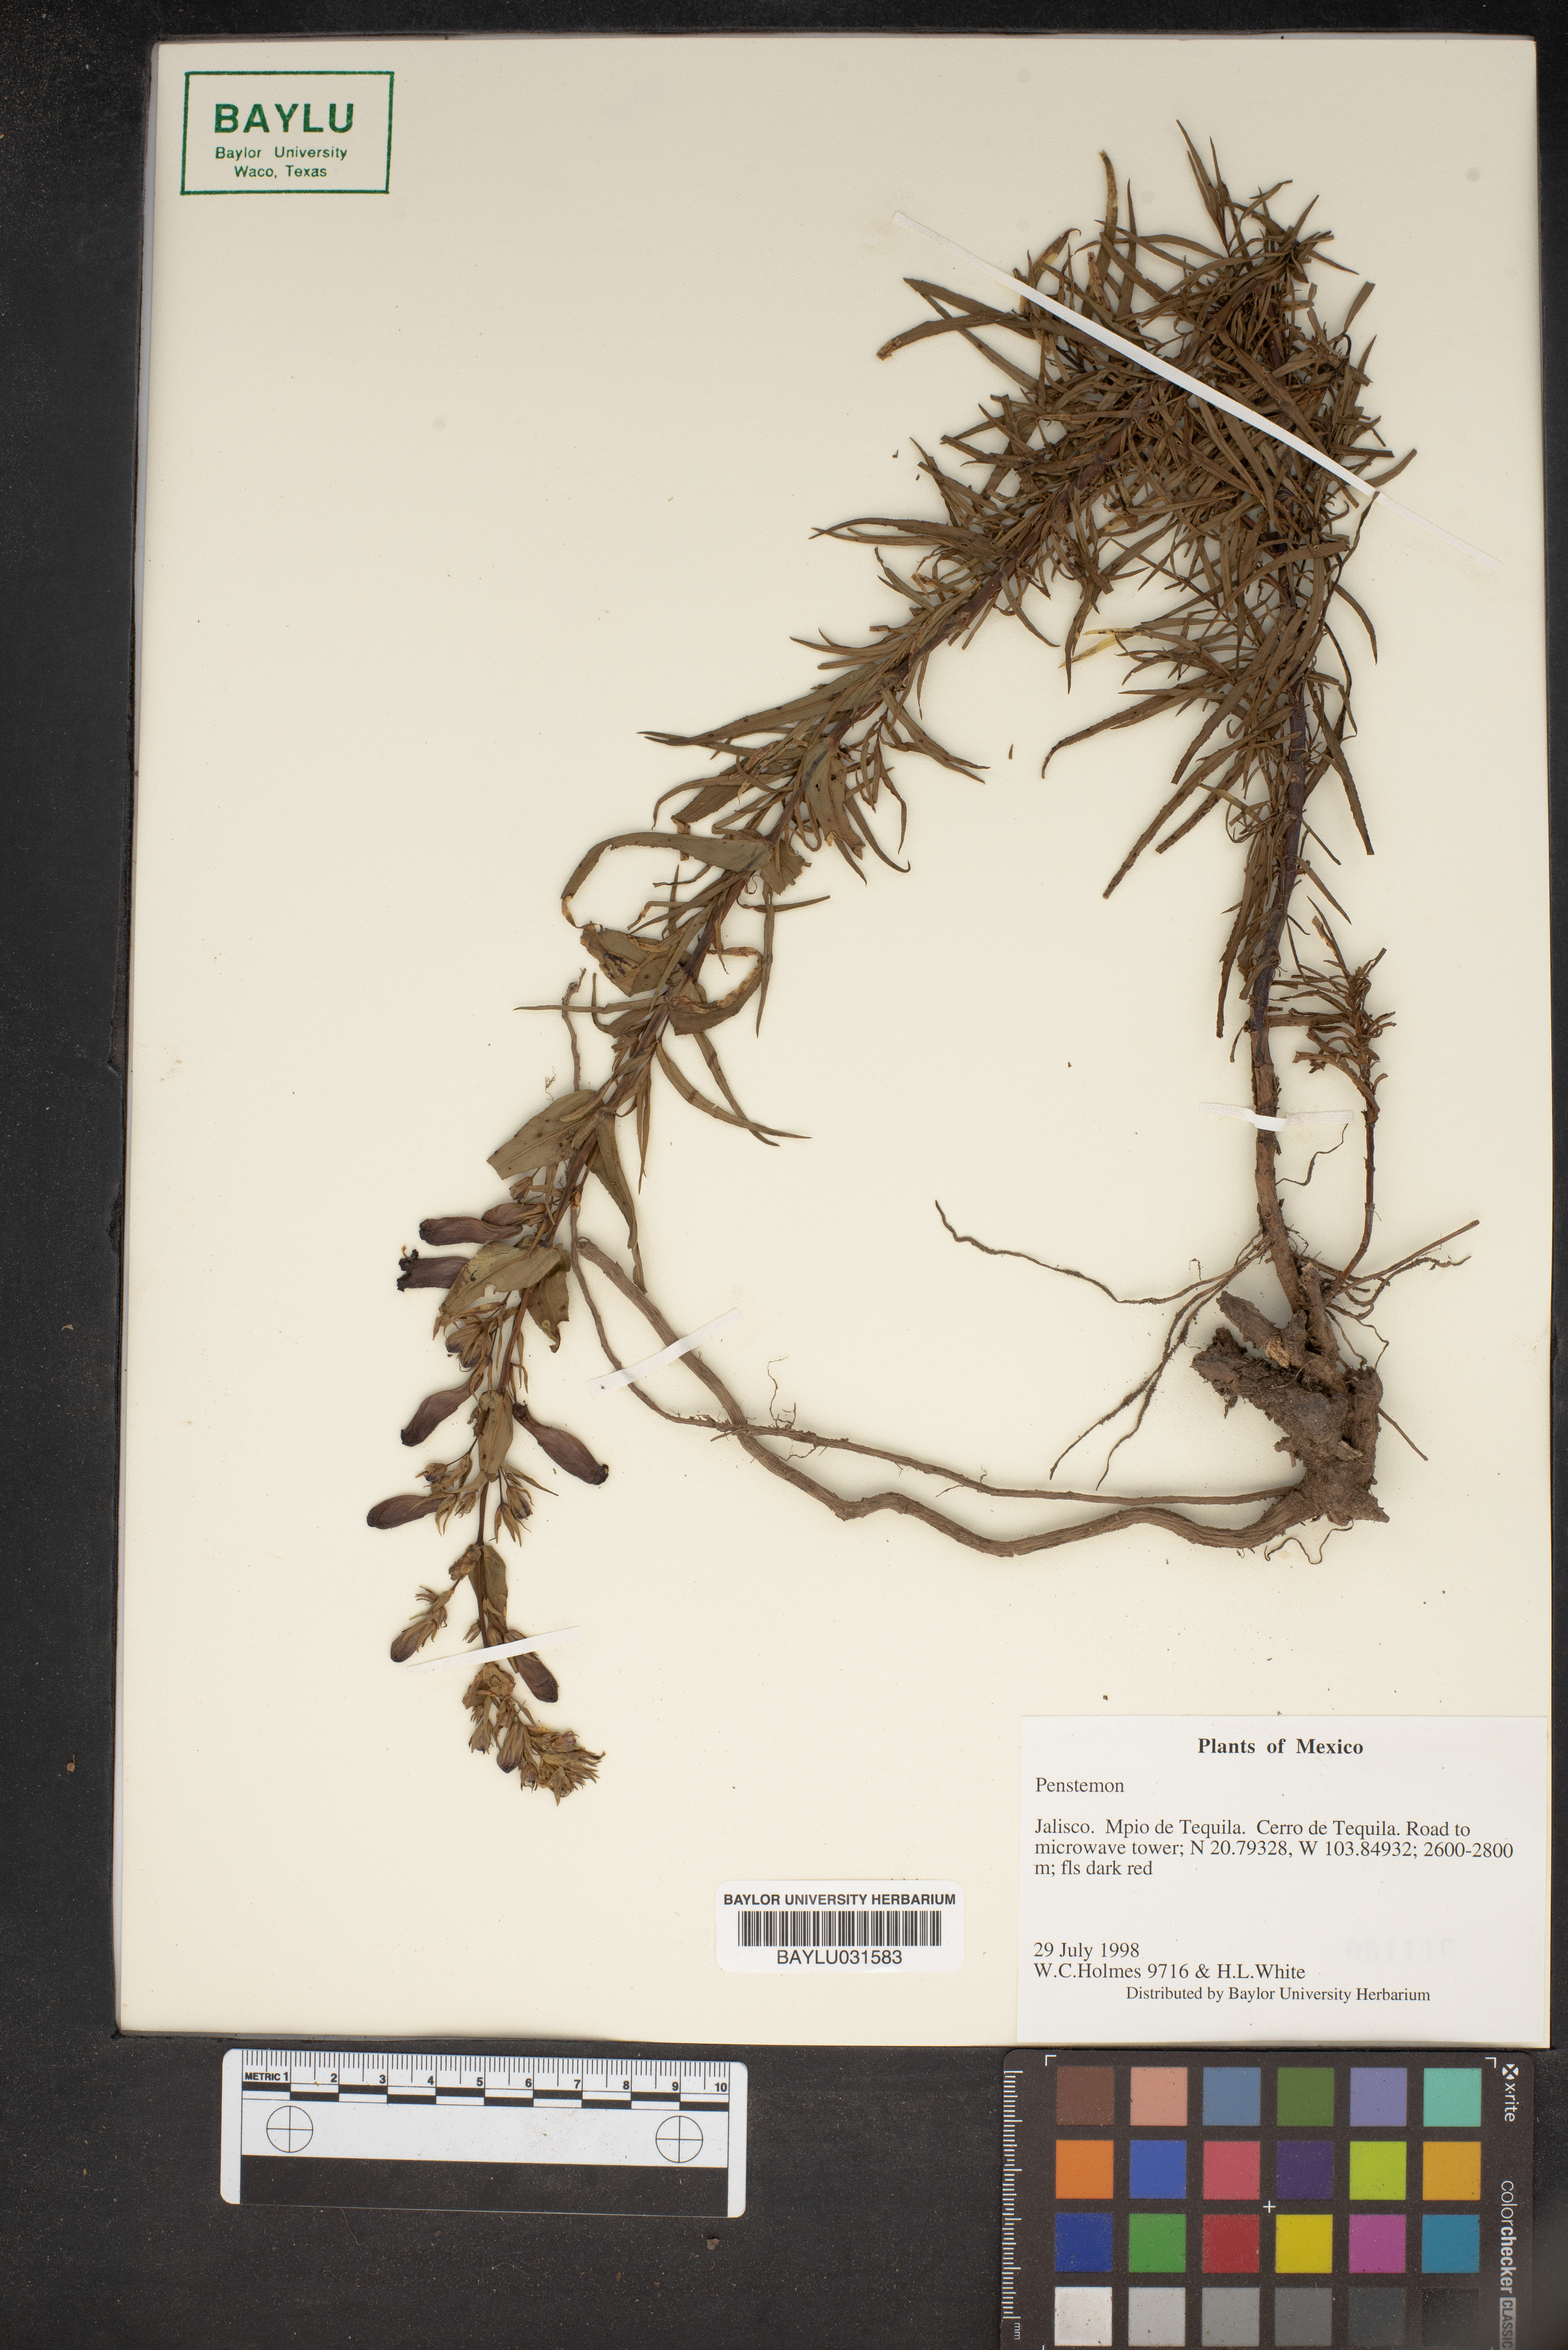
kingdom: Plantae
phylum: Tracheophyta
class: Magnoliopsida
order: Lamiales
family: Plantaginaceae
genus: Penstemon
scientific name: Penstemon
